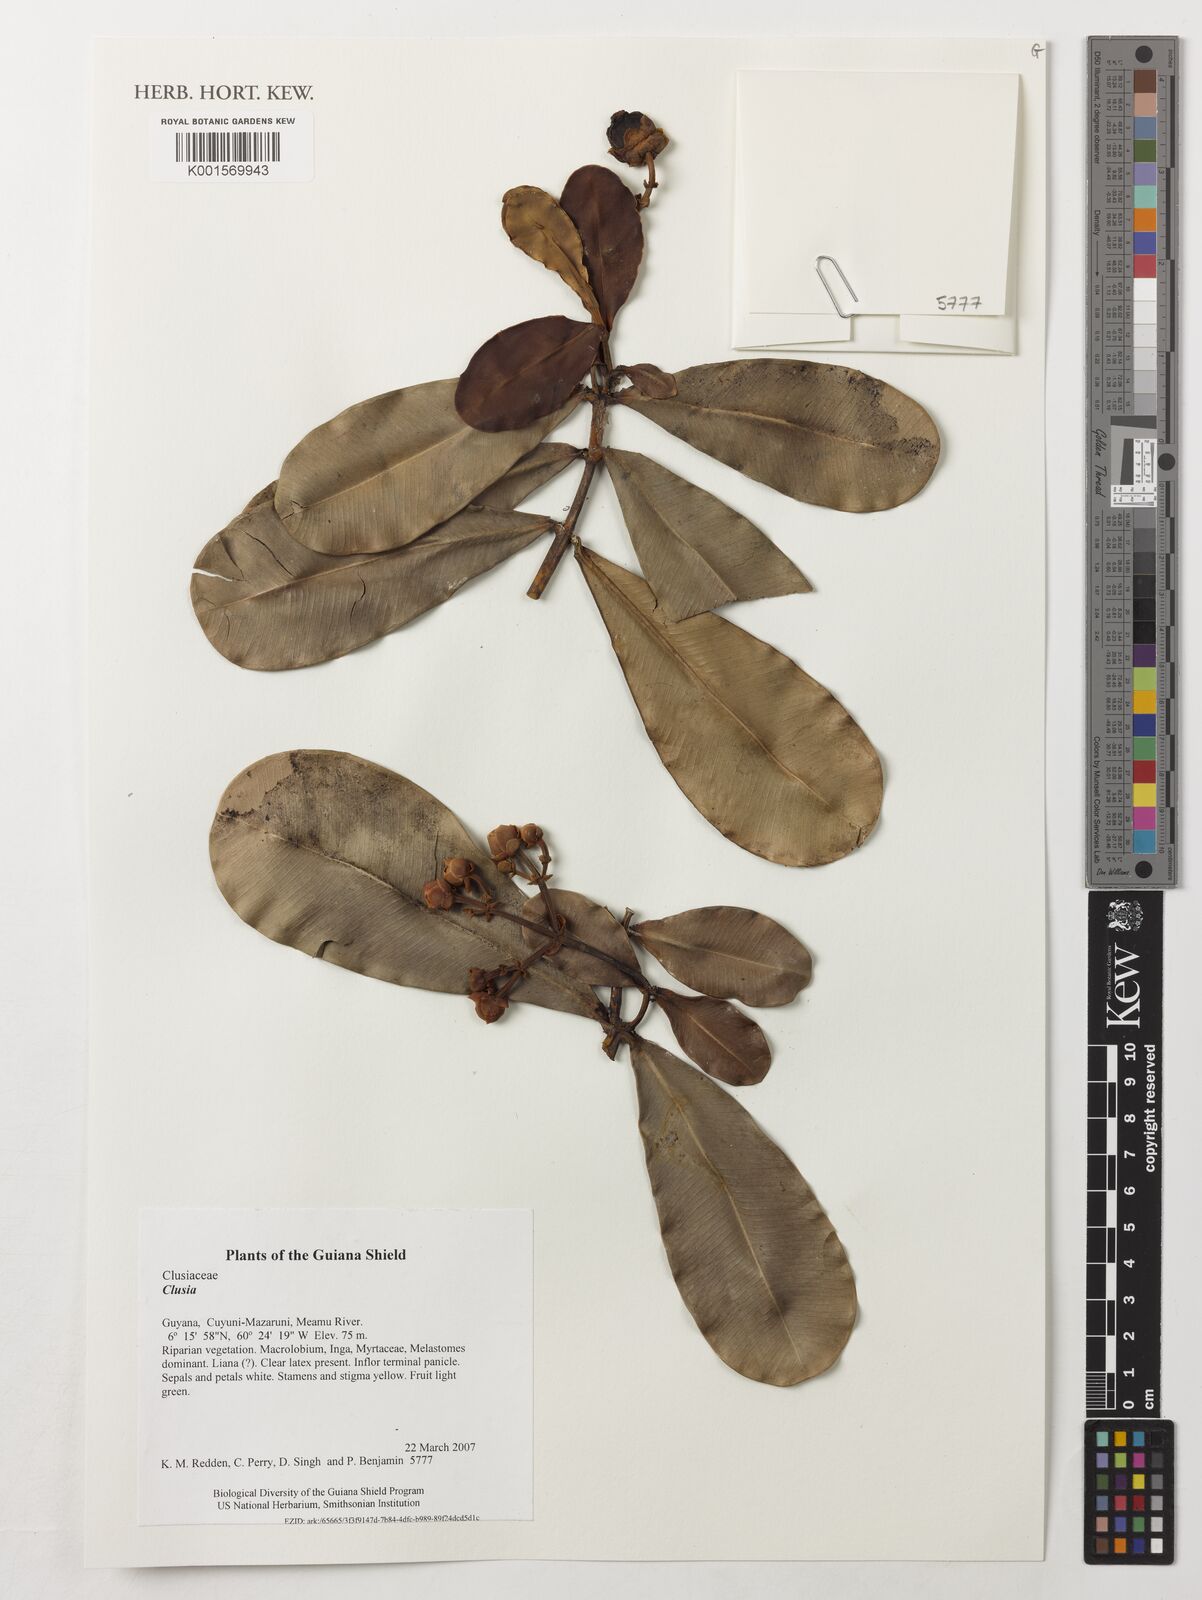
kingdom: Plantae
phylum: Tracheophyta
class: Magnoliopsida
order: Malpighiales
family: Clusiaceae
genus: Clusia
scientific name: Clusia
